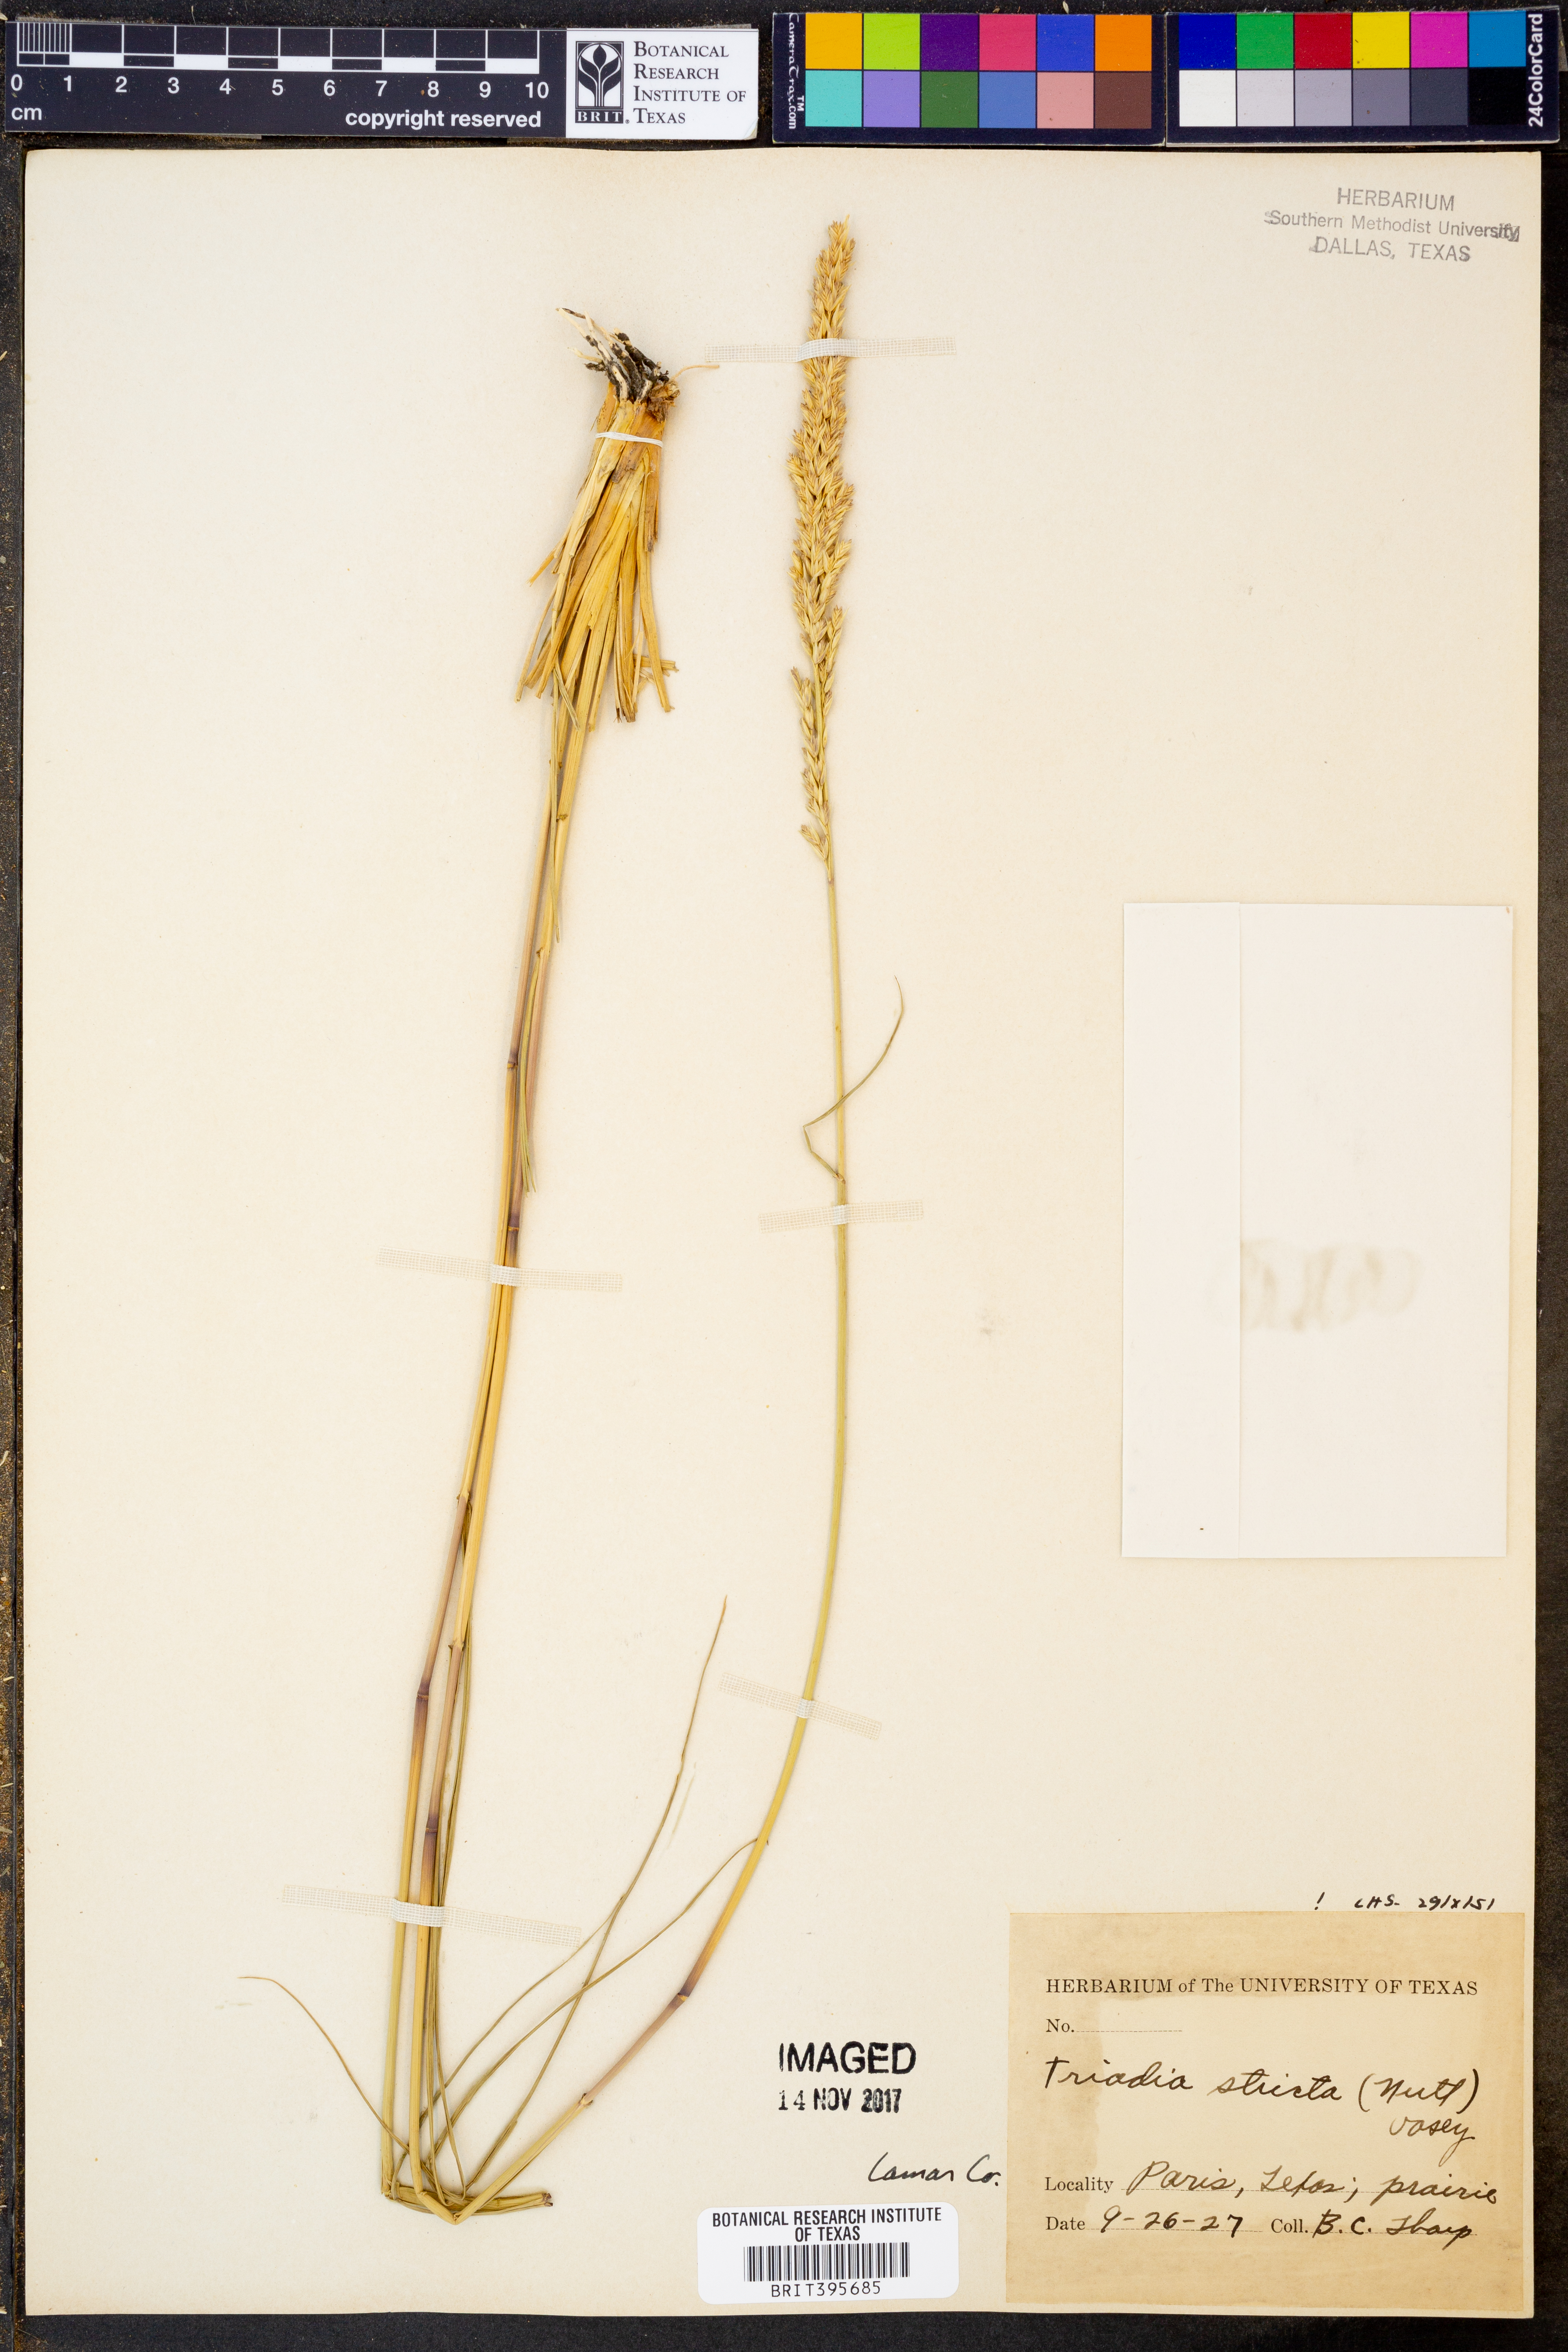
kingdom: Plantae
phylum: Tracheophyta
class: Liliopsida
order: Poales
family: Poaceae
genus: Tridens
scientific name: Tridens strictus
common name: Long-spike tridens
